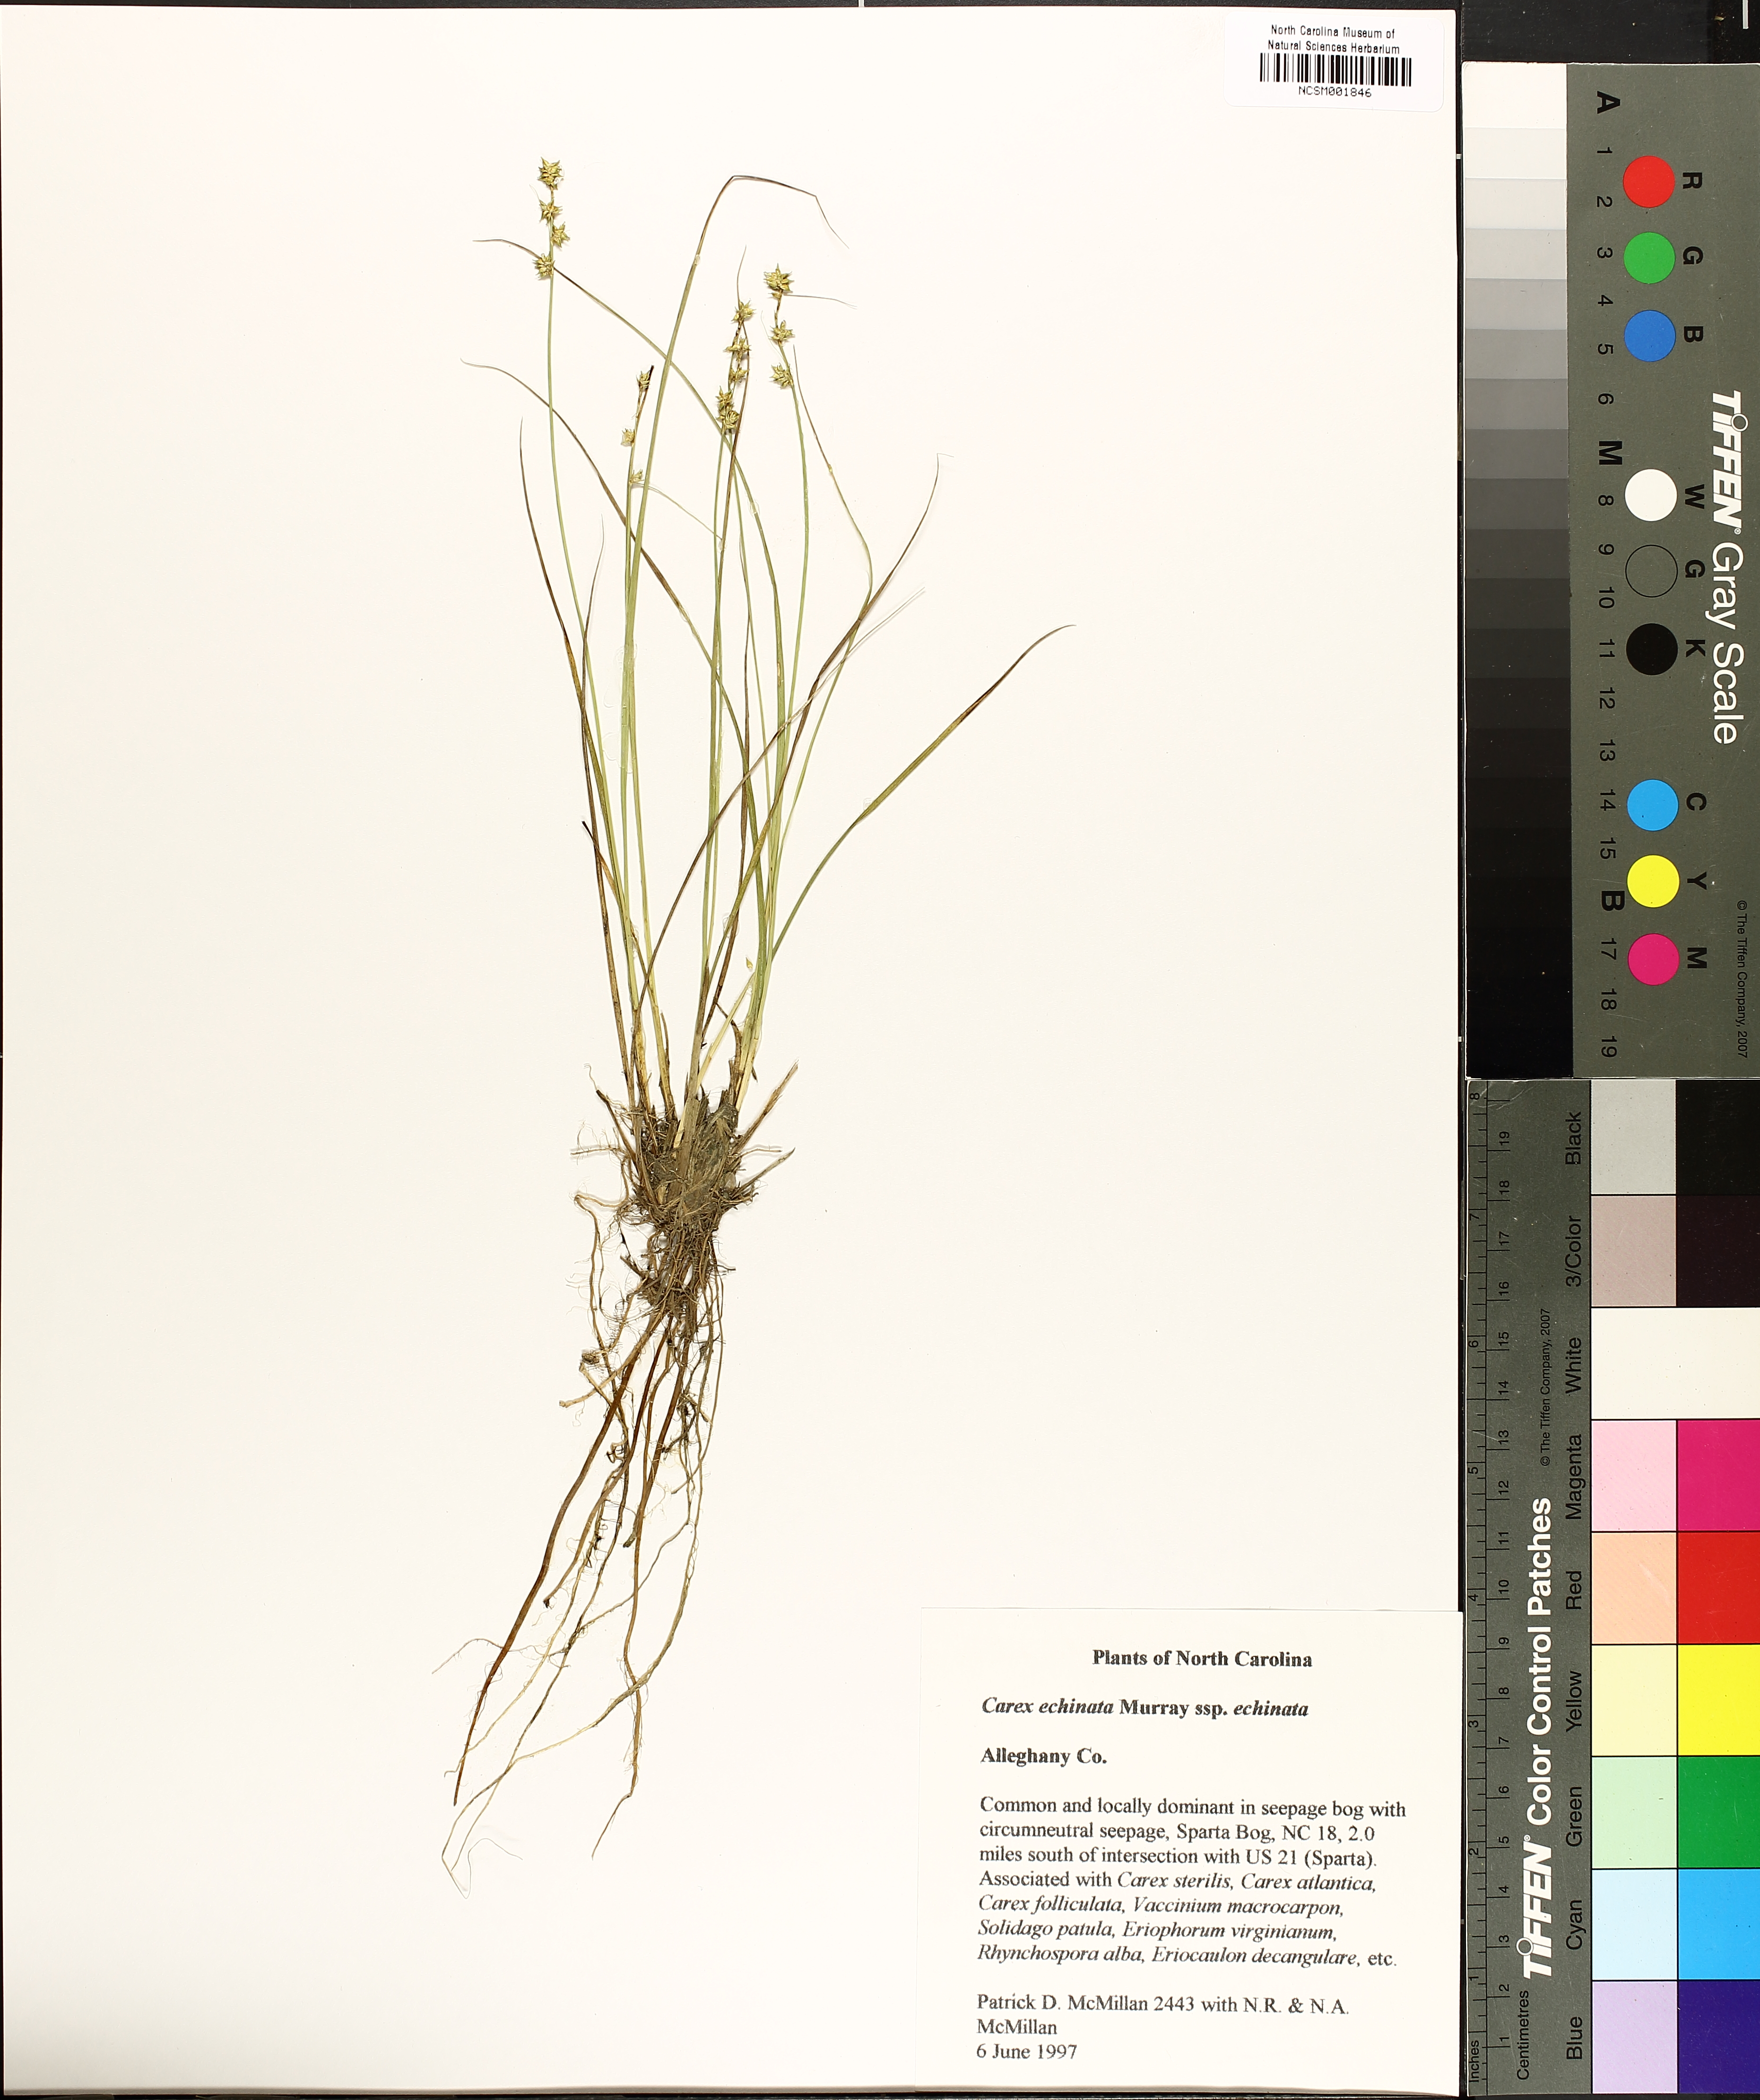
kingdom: Plantae
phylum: Tracheophyta
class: Liliopsida
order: Poales
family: Cyperaceae
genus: Carex
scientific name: Carex echinata
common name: Star sedge
